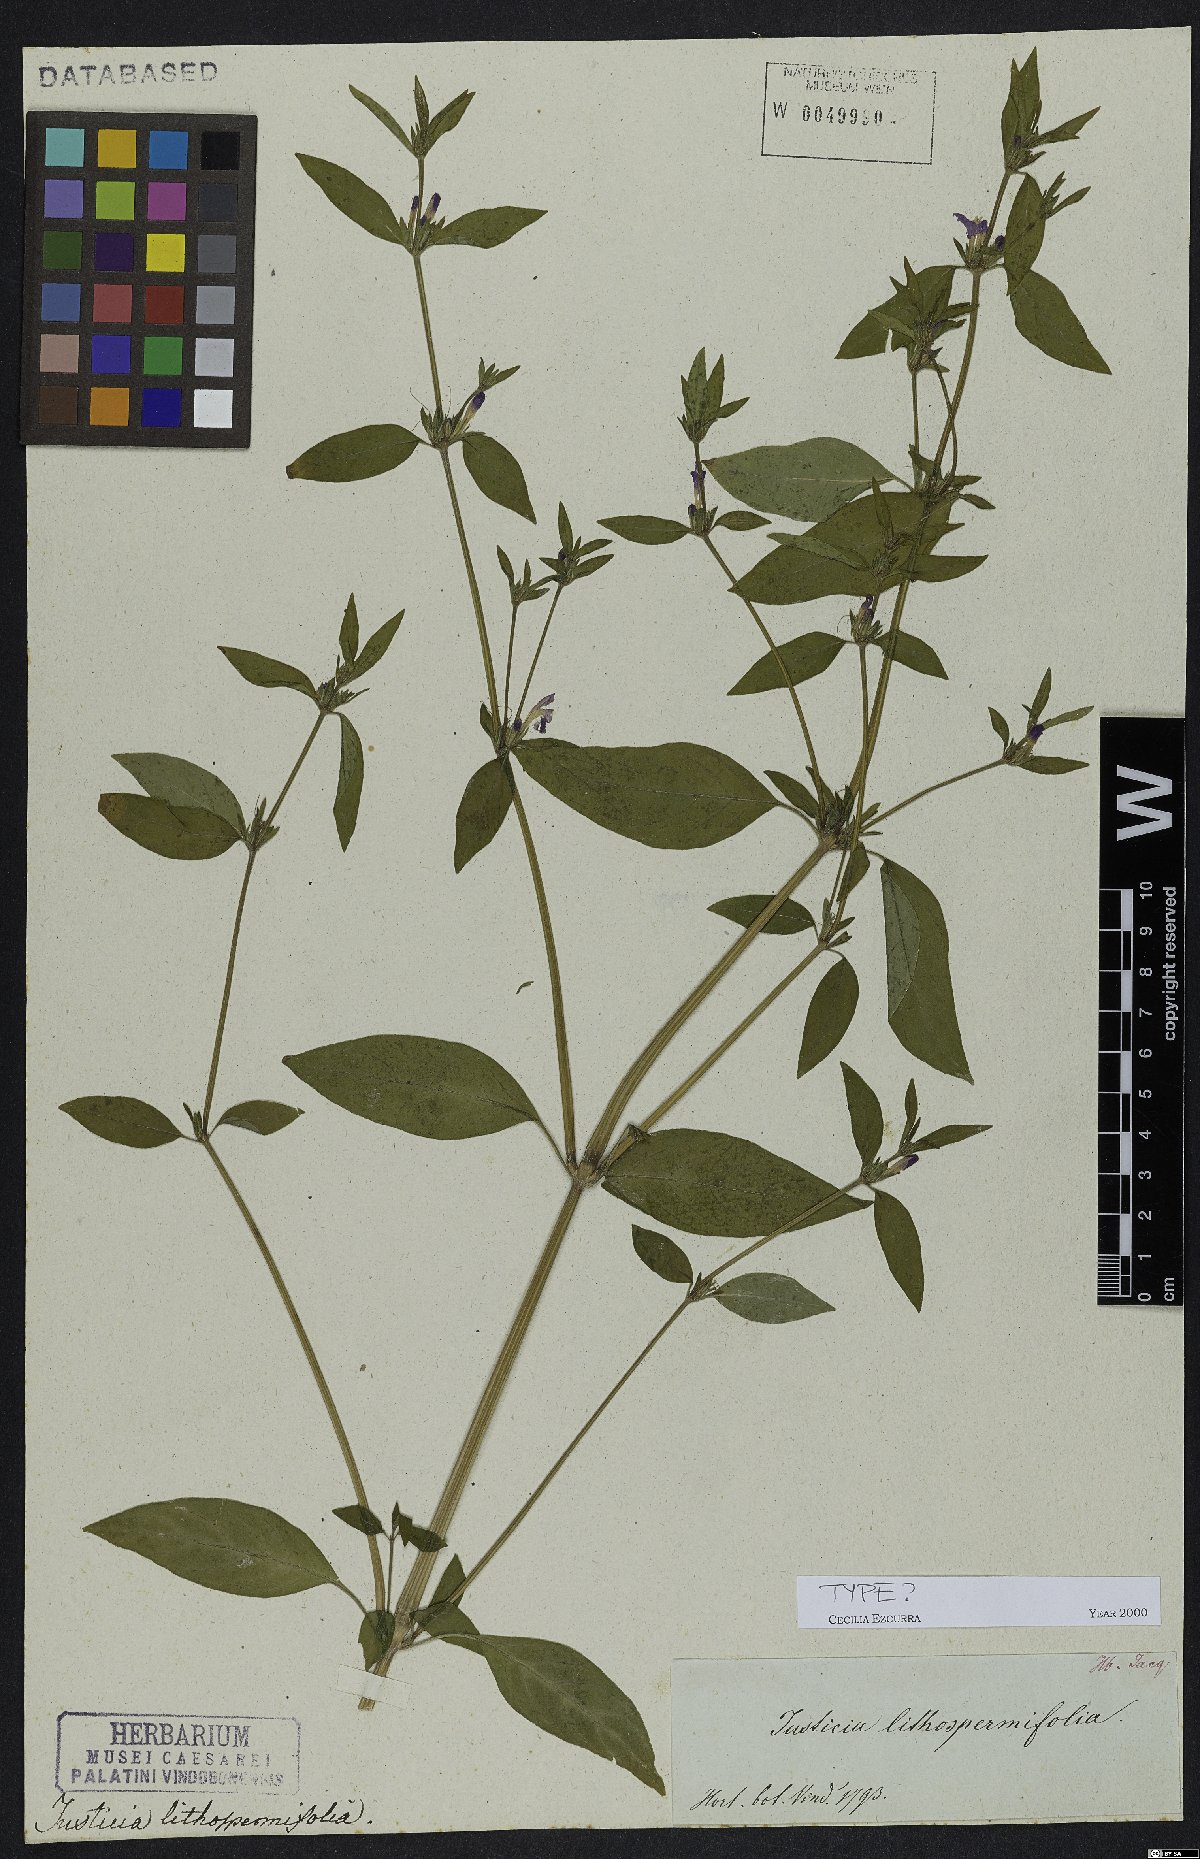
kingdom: Plantae
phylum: Tracheophyta
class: Magnoliopsida
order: Lamiales
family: Acanthaceae
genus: Justicia
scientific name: Justicia ladanoides
